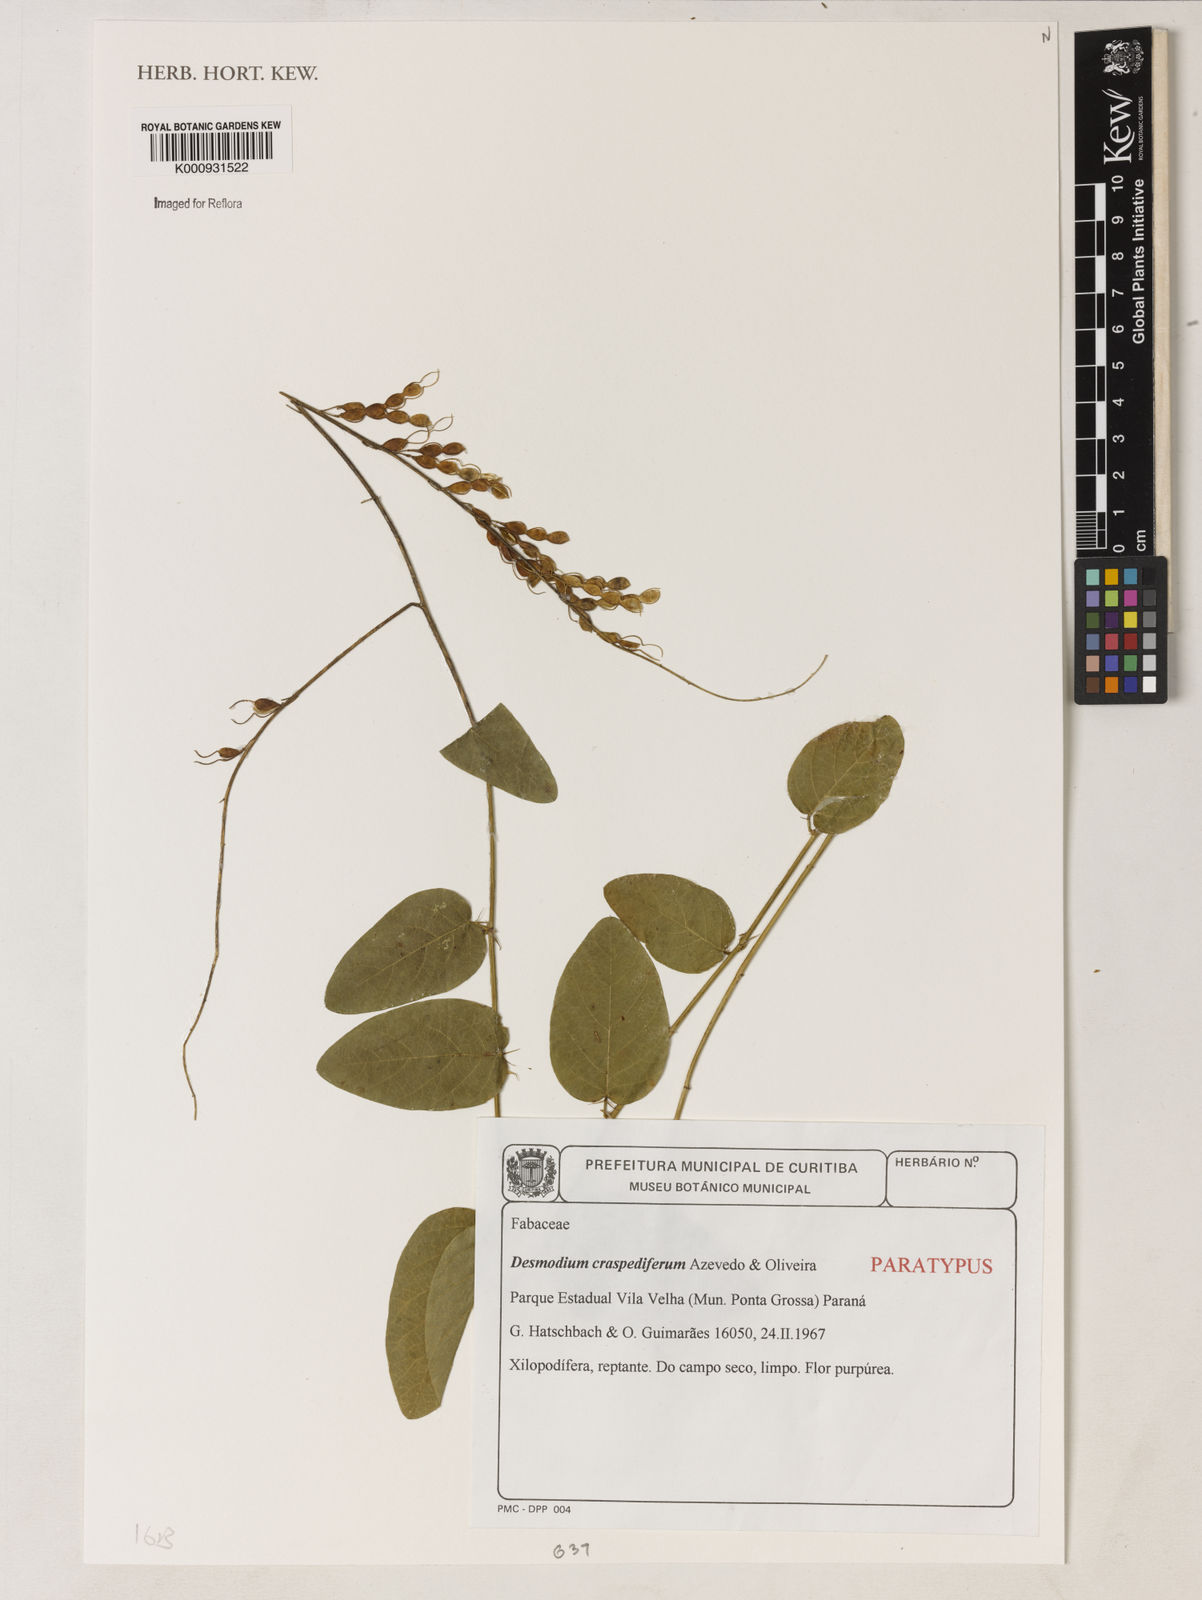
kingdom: Plantae
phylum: Tracheophyta
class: Magnoliopsida
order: Fabales
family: Fabaceae
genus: Desmodium
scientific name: Desmodium craspediferum
